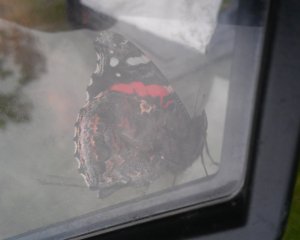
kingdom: Animalia
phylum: Arthropoda
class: Insecta
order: Lepidoptera
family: Nymphalidae
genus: Vanessa
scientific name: Vanessa atalanta
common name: Red Admiral
